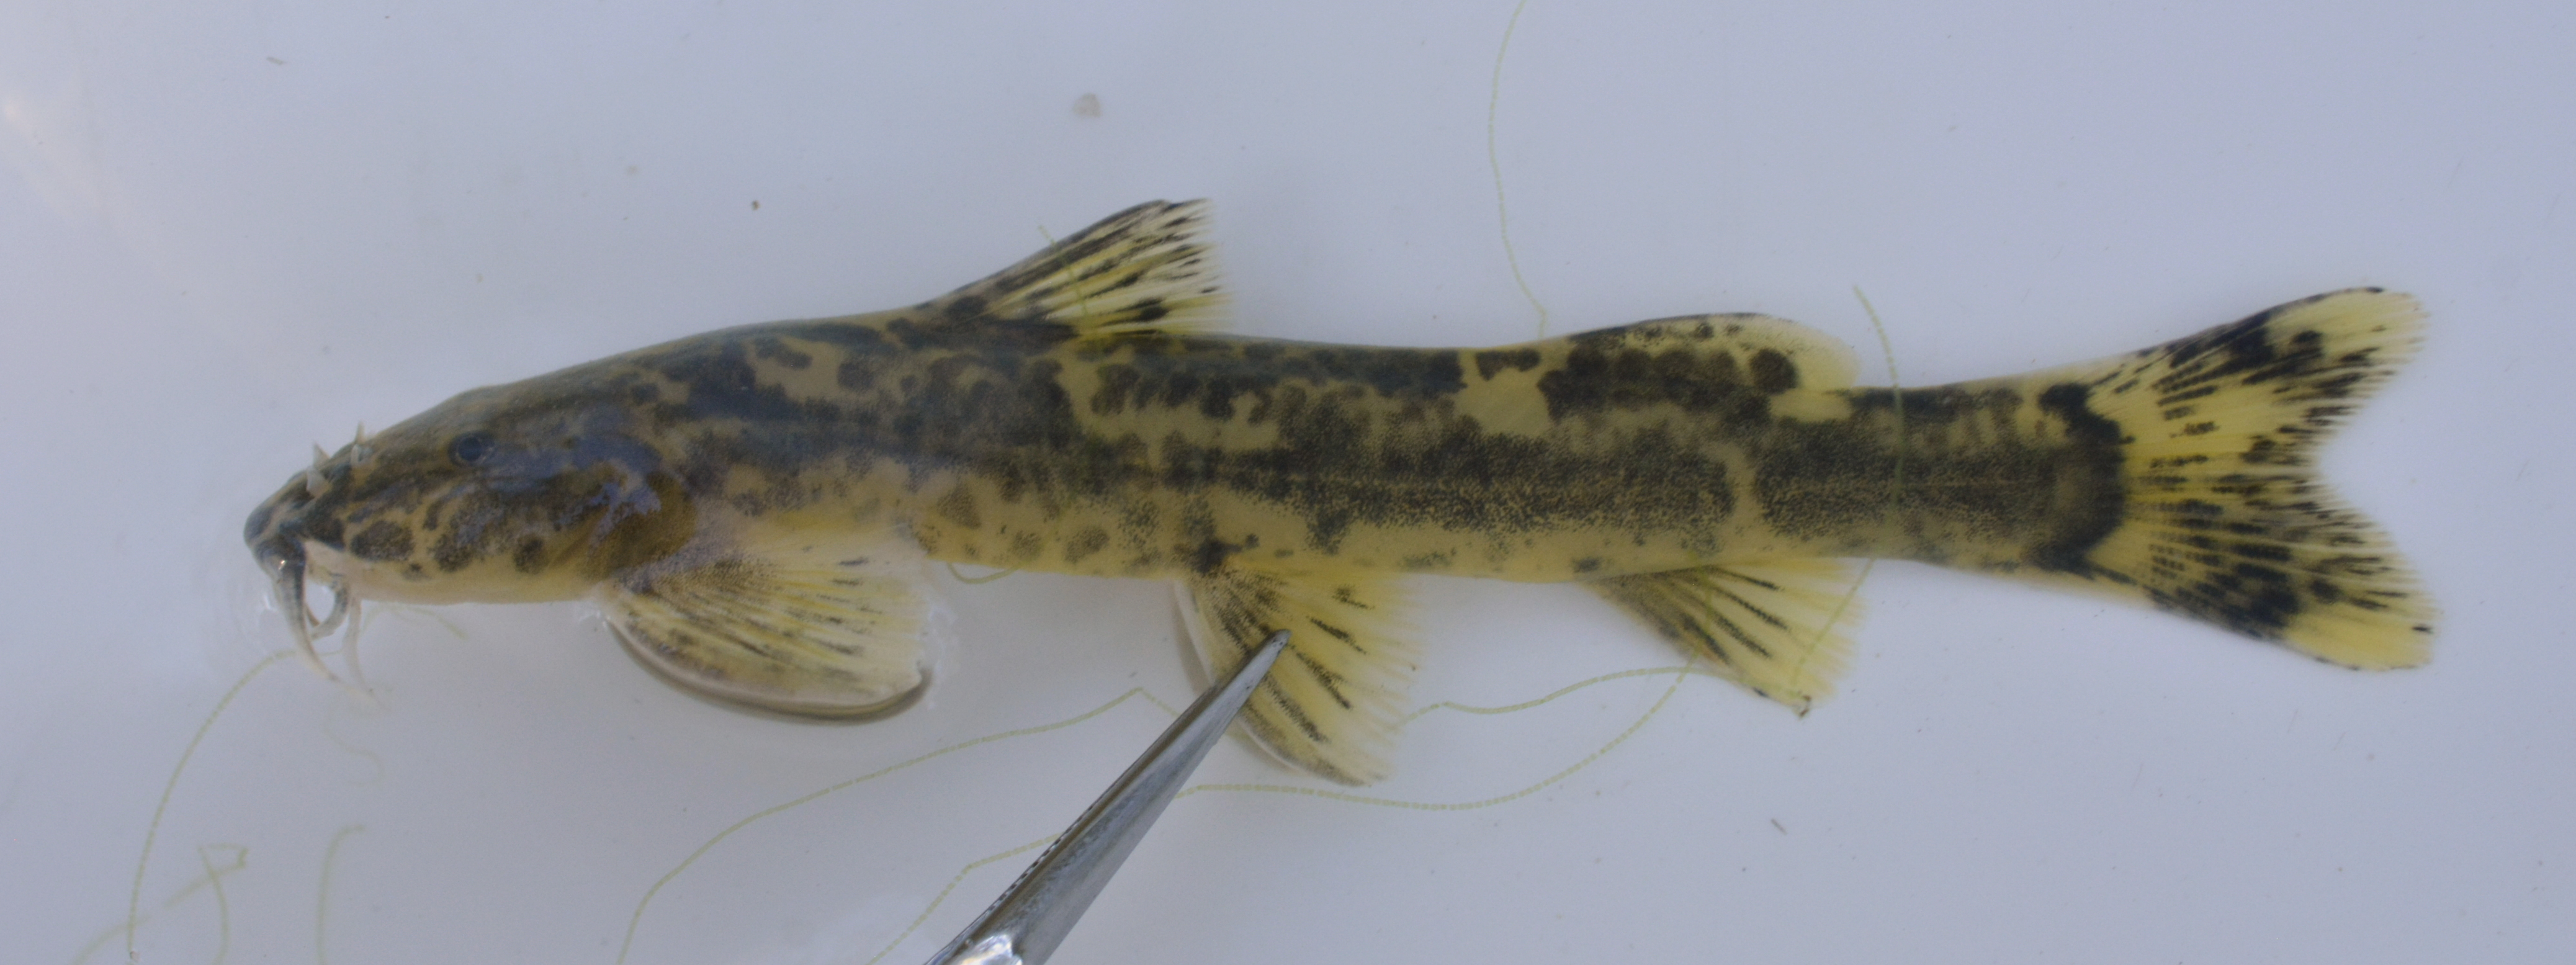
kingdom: Animalia
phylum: Chordata
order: Siluriformes
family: Amphiliidae
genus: Amphilius
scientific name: Amphilius uranoscopus
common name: Stargazer mountain catfish
